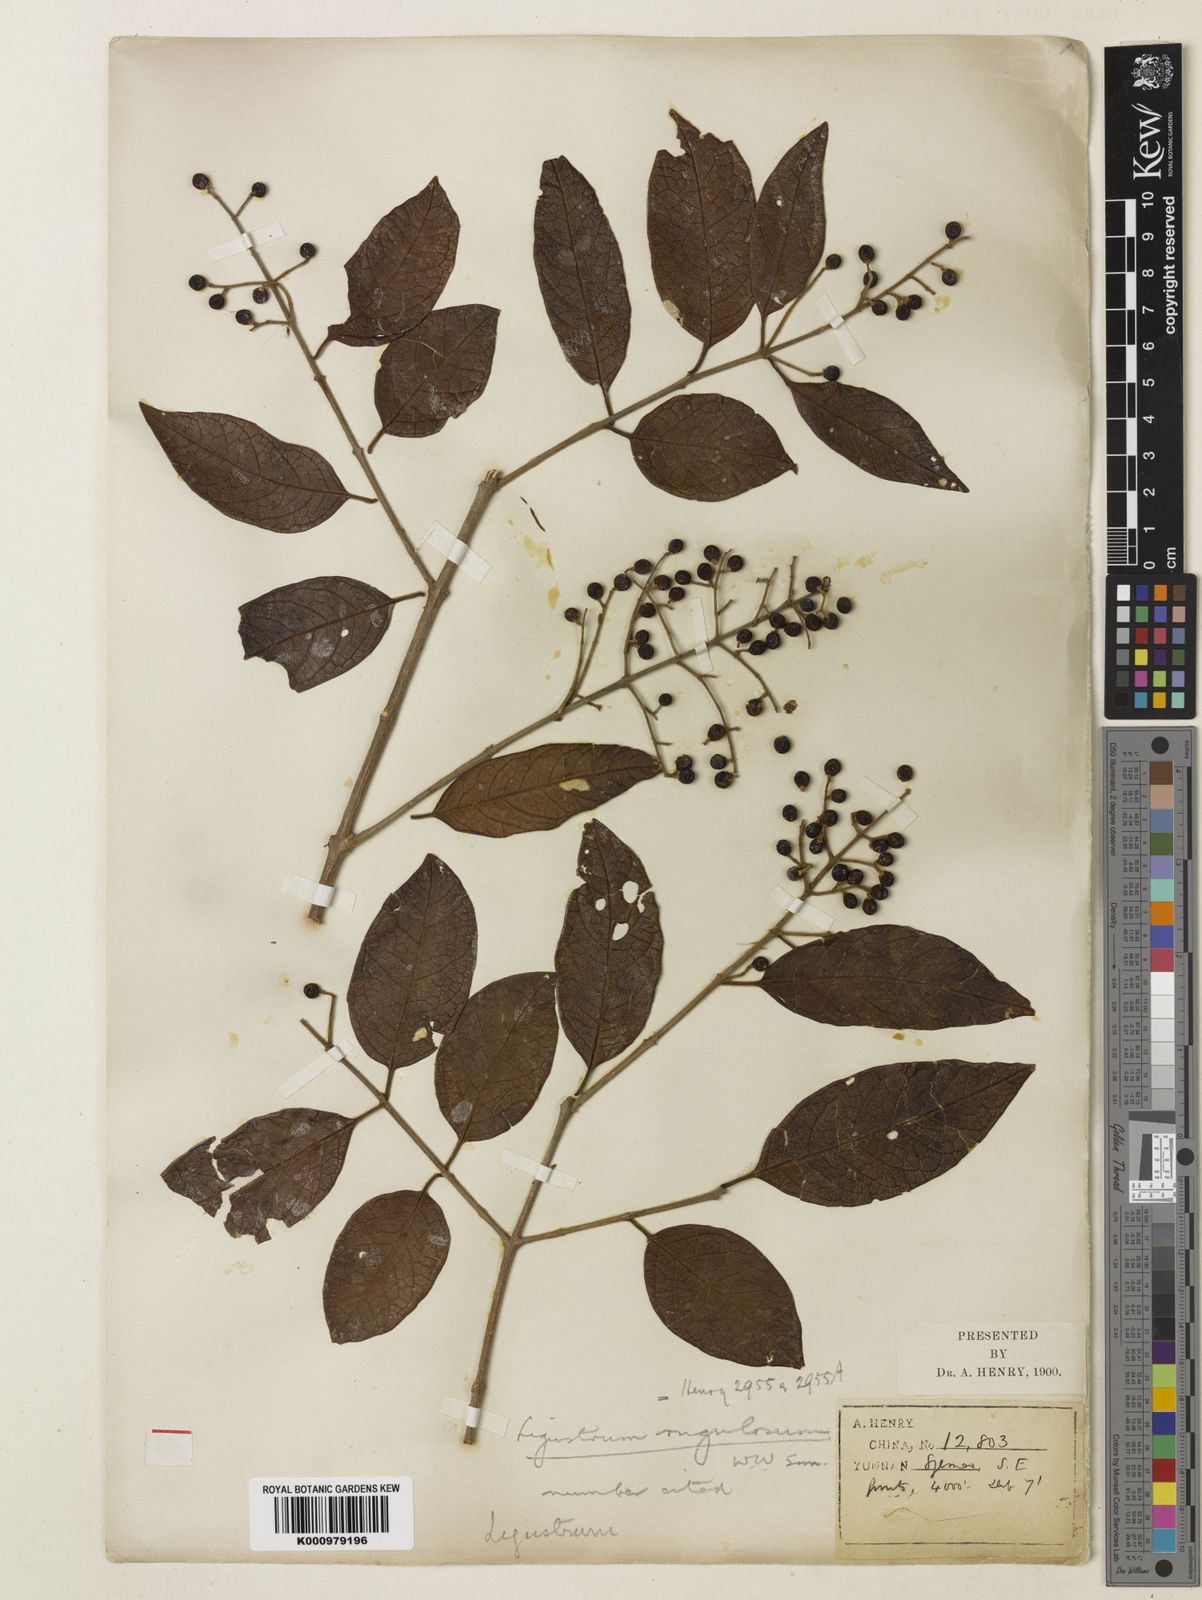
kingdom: Plantae
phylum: Tracheophyta
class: Magnoliopsida
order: Lamiales
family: Oleaceae
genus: Ligustrum
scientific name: Ligustrum sinense
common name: Chinese privet
